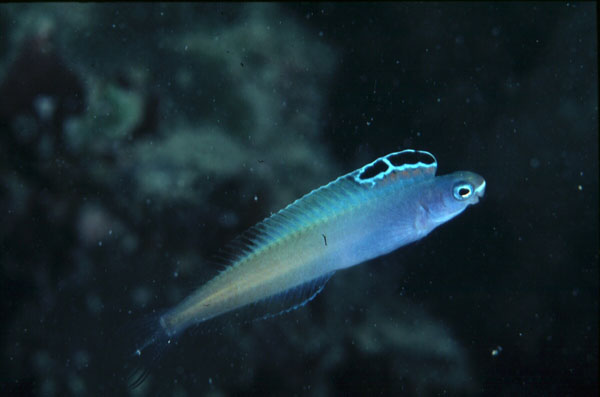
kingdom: Animalia
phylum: Chordata
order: Perciformes
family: Blenniidae
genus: Plagiotremus
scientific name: Plagiotremus townsendi
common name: Townsend's fangblenny
